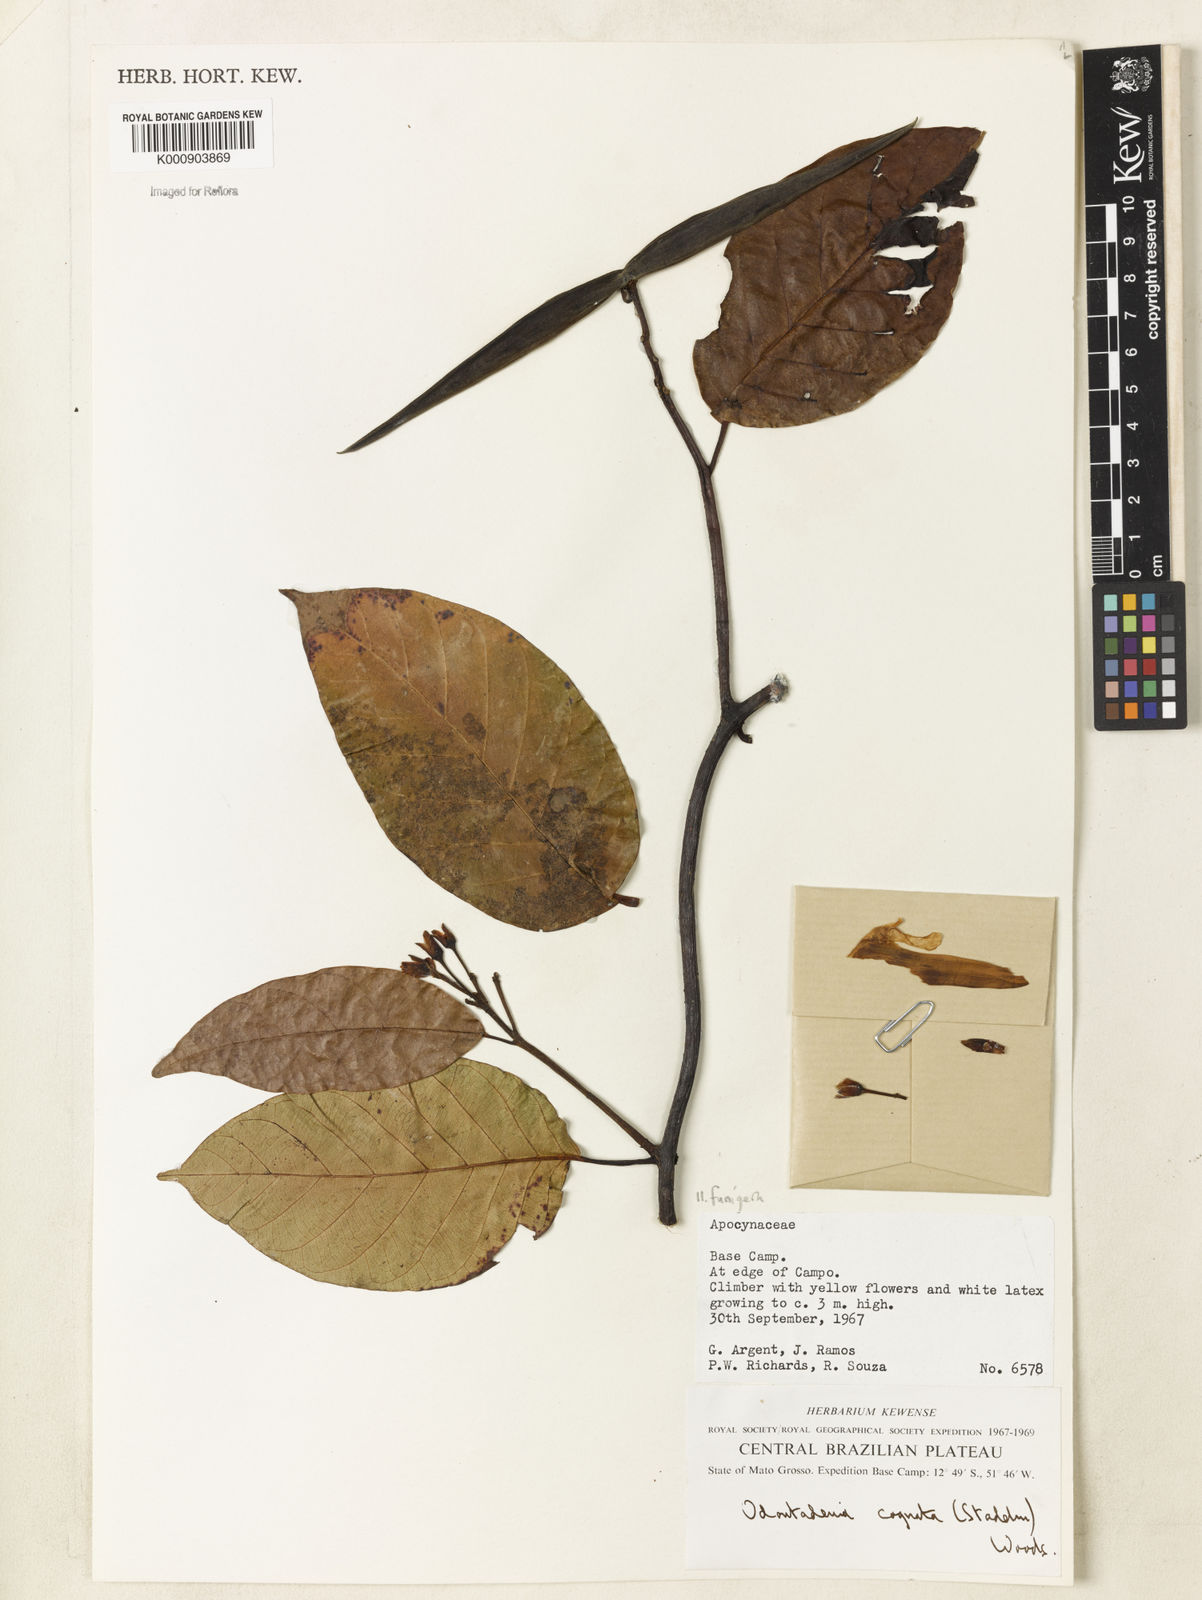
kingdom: Plantae
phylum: Tracheophyta
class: Magnoliopsida
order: Gentianales
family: Apocynaceae
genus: Odontadenia
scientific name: Odontadenia funigera
